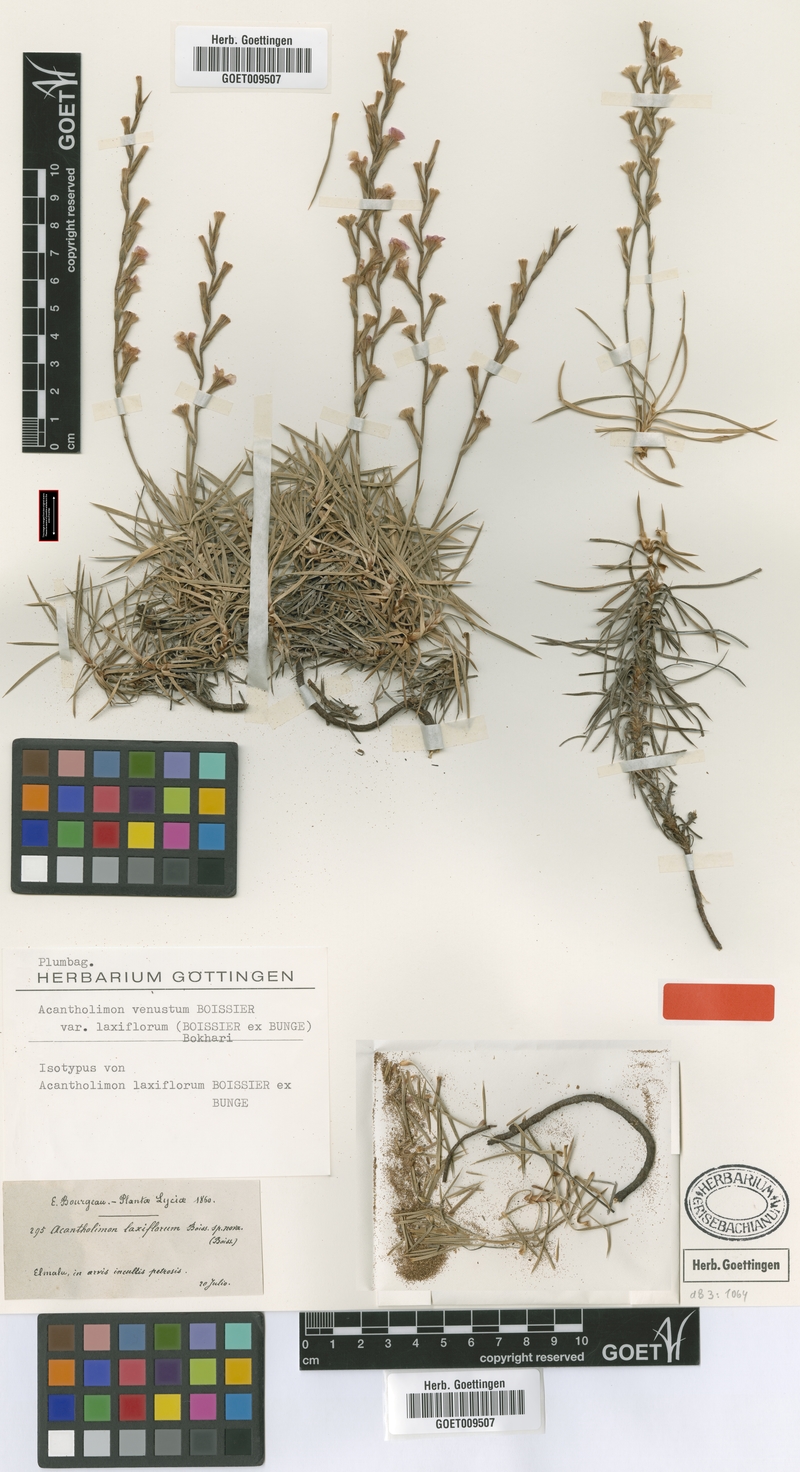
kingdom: Plantae
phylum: Tracheophyta
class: Magnoliopsida
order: Caryophyllales
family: Plumbaginaceae
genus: Acantholimon
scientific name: Acantholimon laxiflorum
